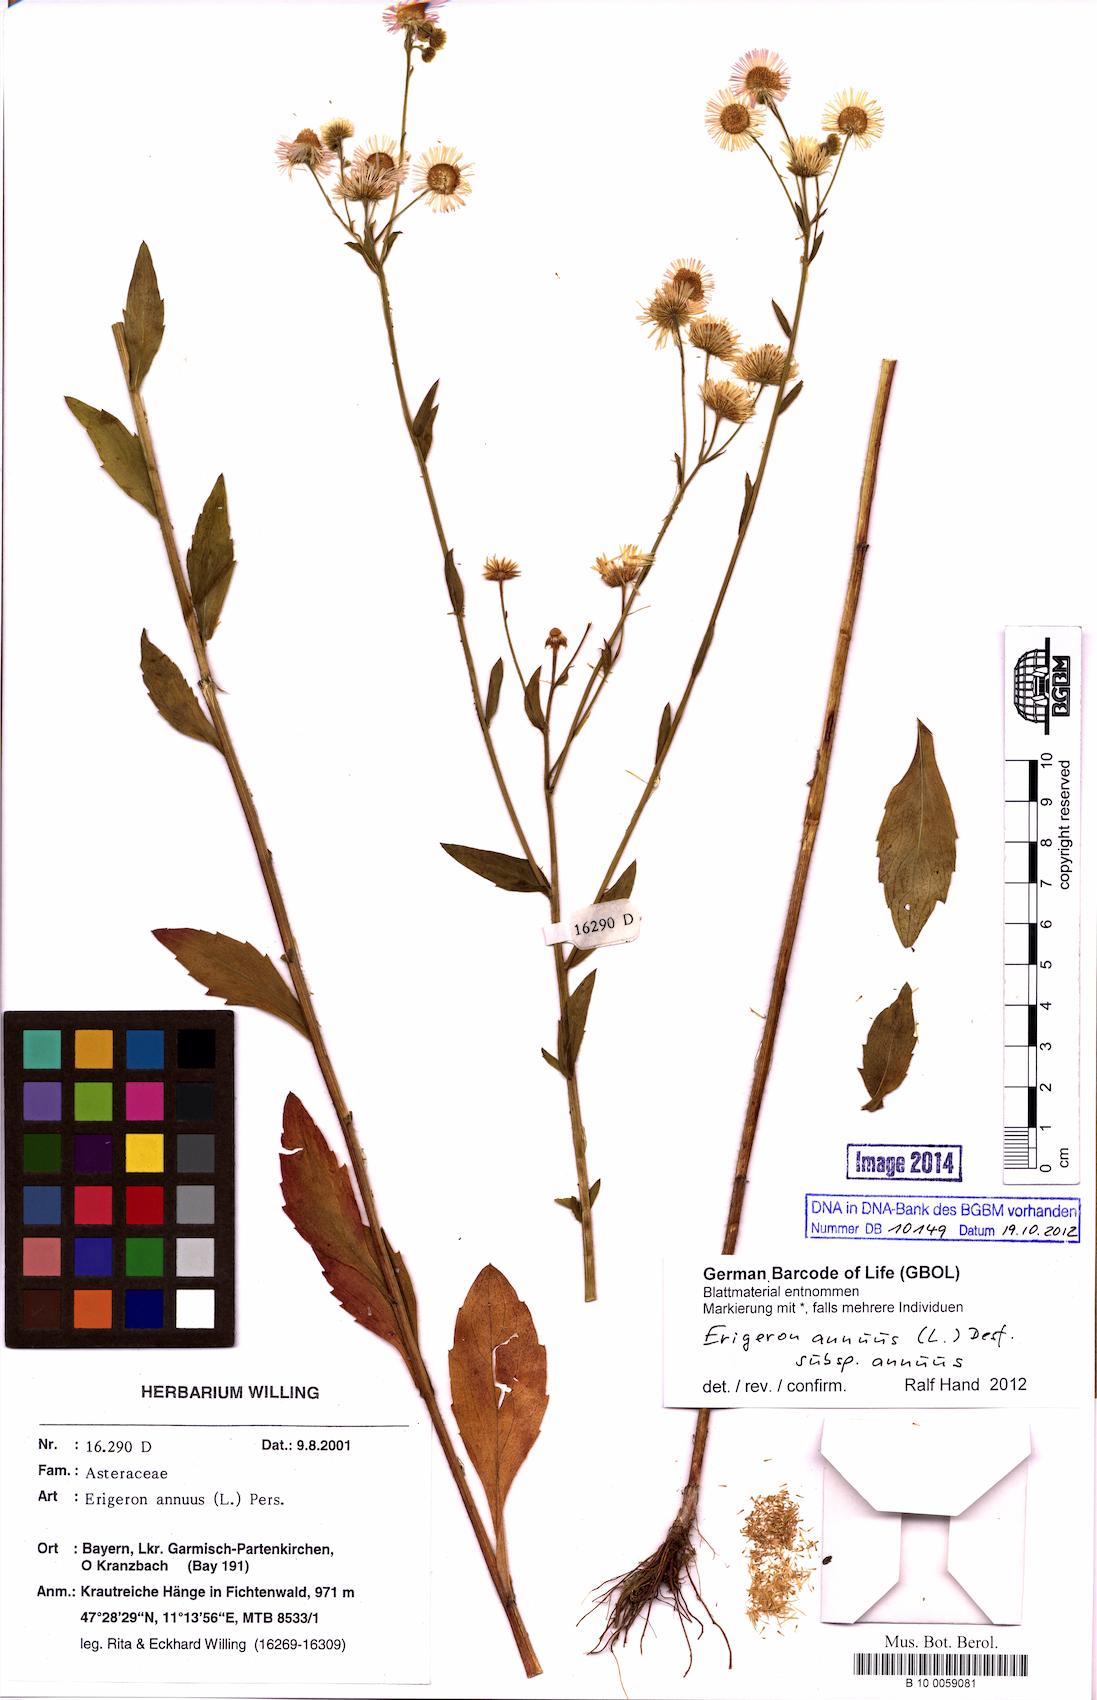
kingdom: Plantae
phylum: Tracheophyta
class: Magnoliopsida
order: Asterales
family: Asteraceae
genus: Erigeron
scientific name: Erigeron annuus
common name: Tall fleabane
